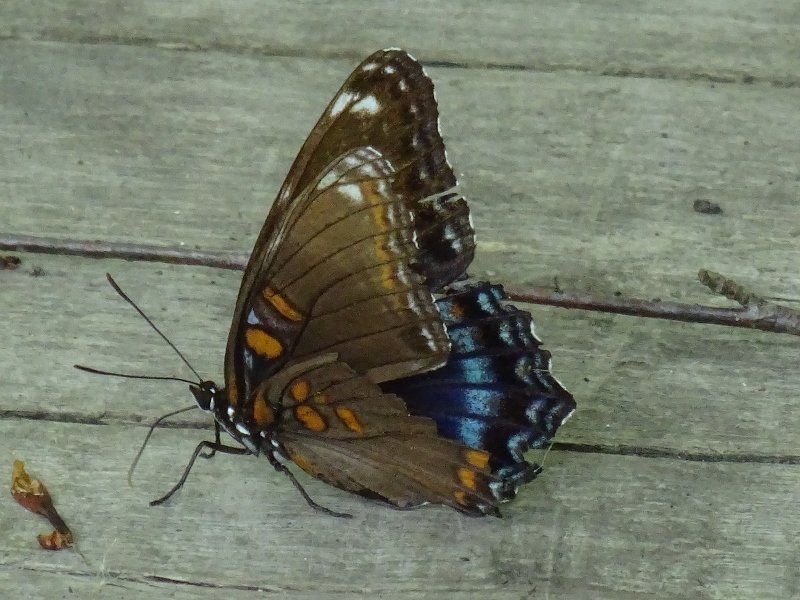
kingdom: Animalia
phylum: Arthropoda
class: Insecta
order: Lepidoptera
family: Nymphalidae
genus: Limenitis
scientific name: Limenitis astyanax
